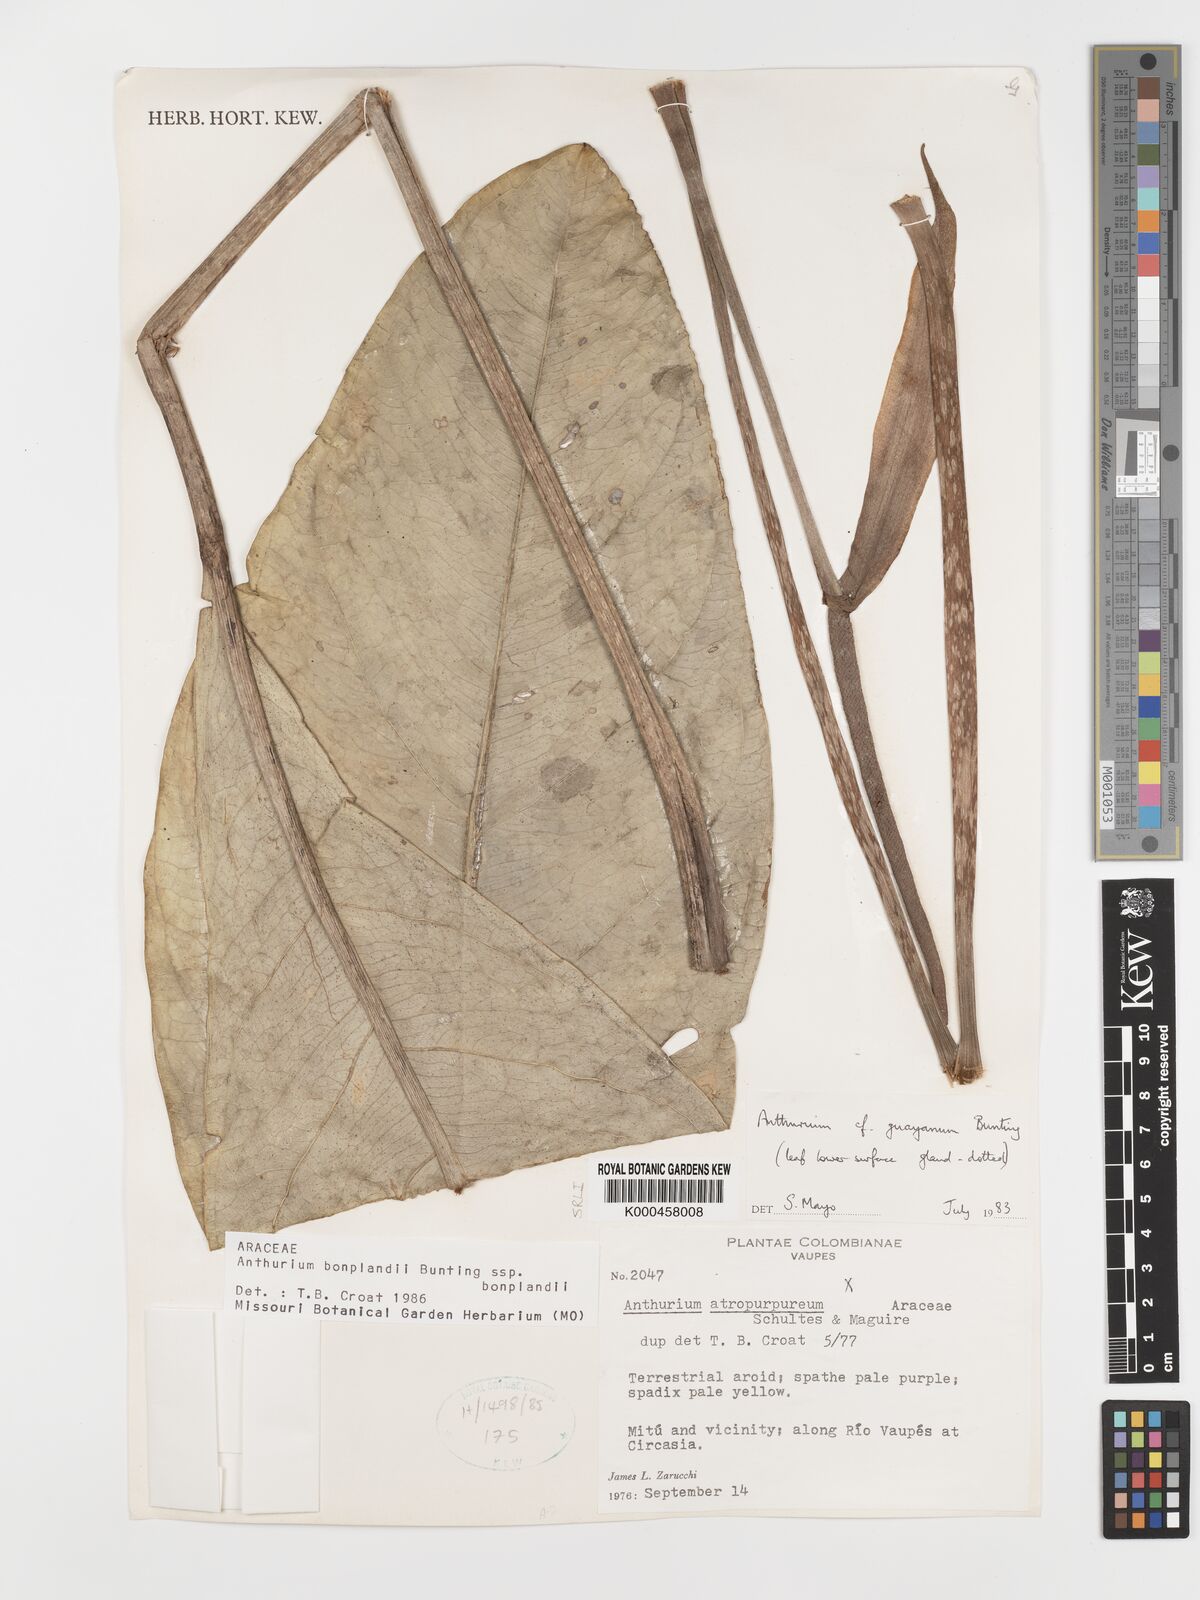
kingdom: Plantae
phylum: Tracheophyta
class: Liliopsida
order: Alismatales
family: Araceae
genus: Anthurium
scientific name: Anthurium bonplandii
